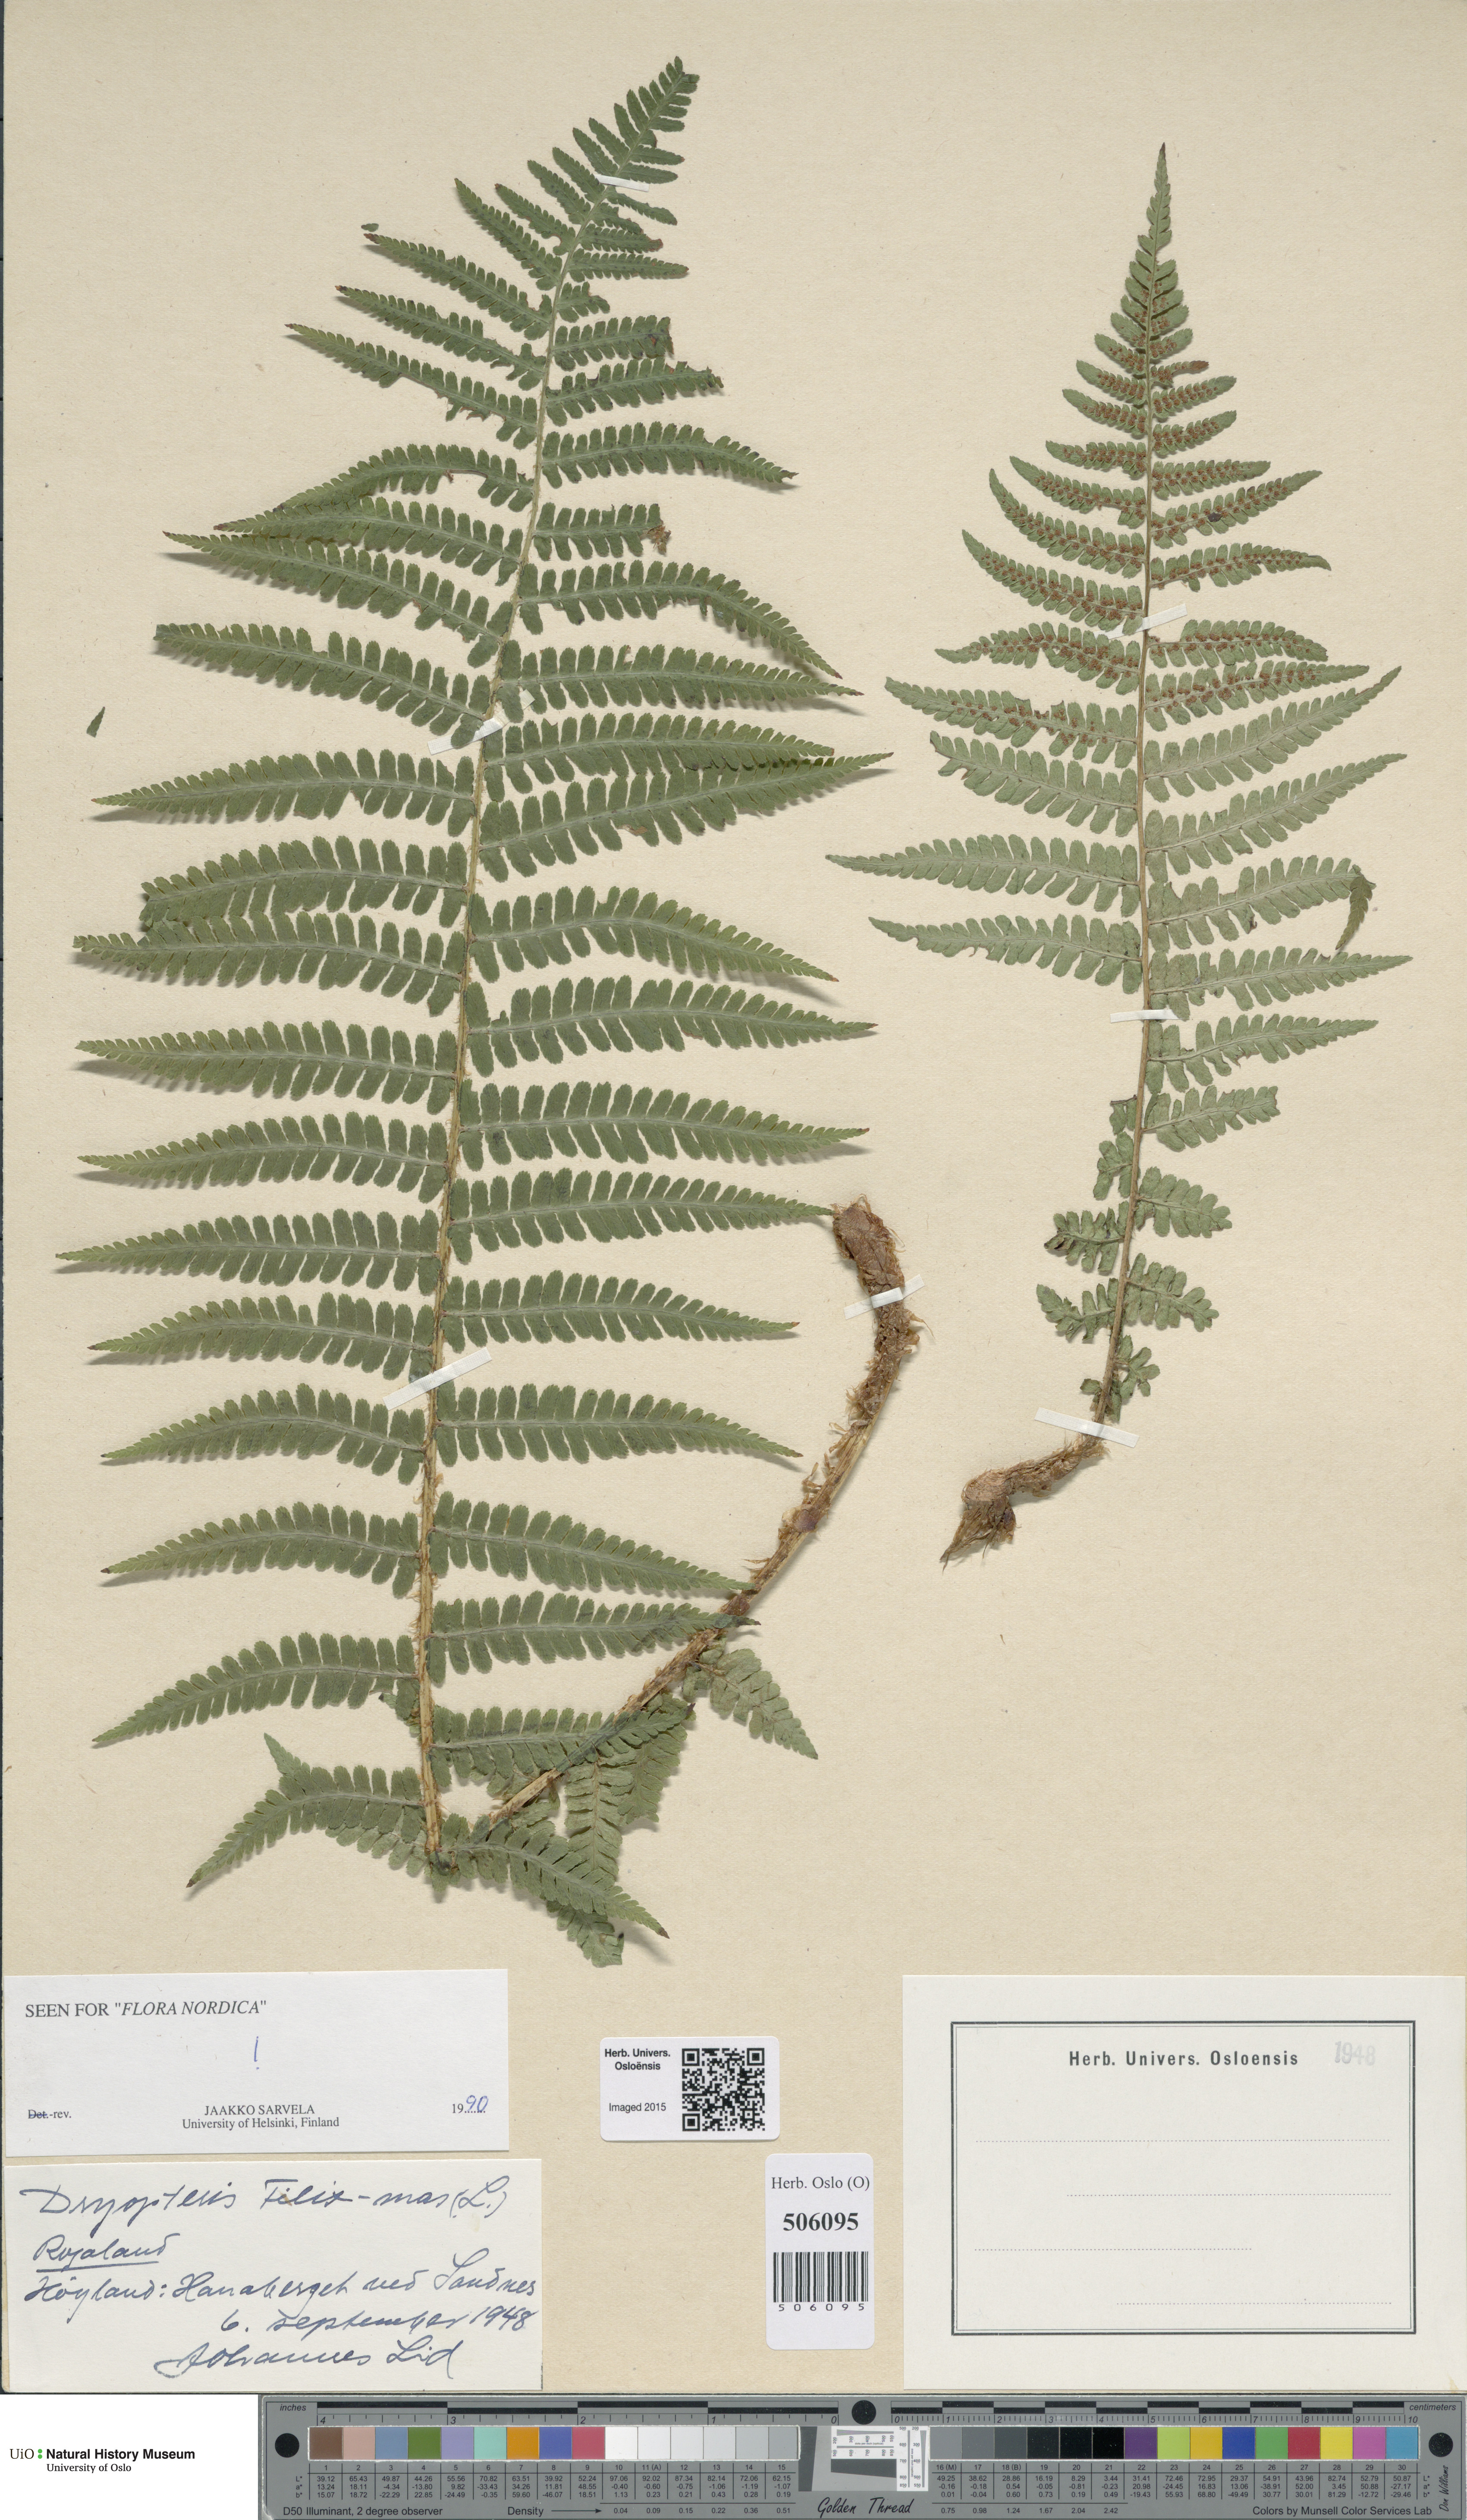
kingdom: Plantae
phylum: Tracheophyta
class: Polypodiopsida
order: Polypodiales
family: Dryopteridaceae
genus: Dryopteris
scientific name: Dryopteris filix-mas
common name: Male fern
